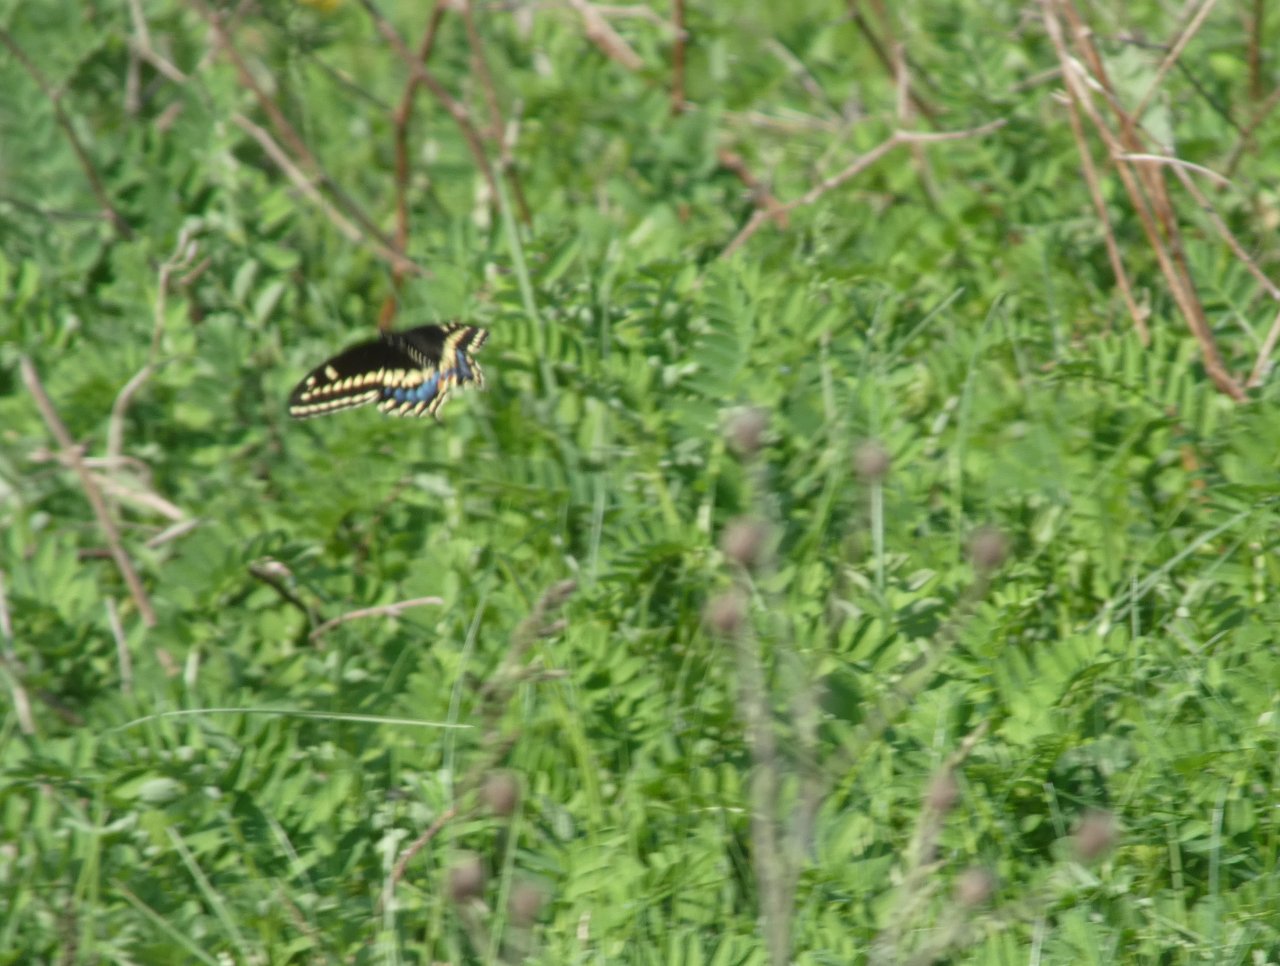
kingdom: Animalia
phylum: Arthropoda
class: Insecta
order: Lepidoptera
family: Papilionidae
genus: Papilio
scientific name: Papilio polyxenes
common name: Black Swallowtail
